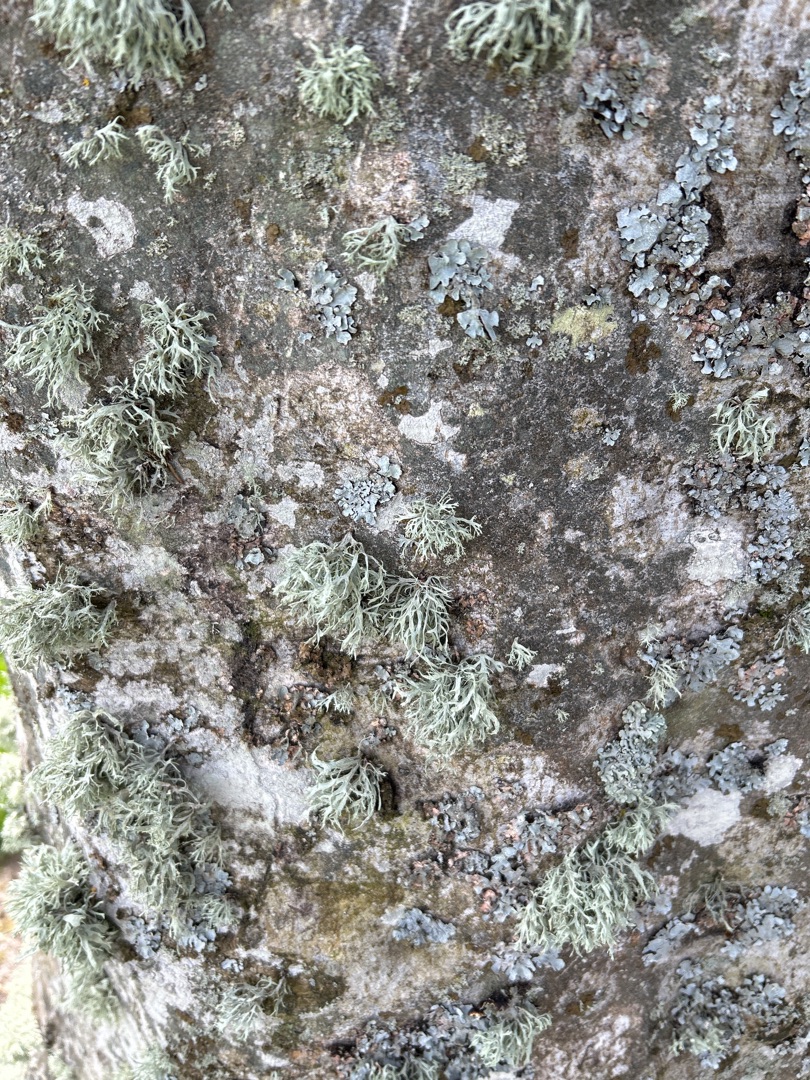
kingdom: Fungi
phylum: Ascomycota
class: Lecanoromycetes
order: Lecanorales
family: Ramalinaceae
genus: Ramalina
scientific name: Ramalina farinacea
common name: Melet grenlav
